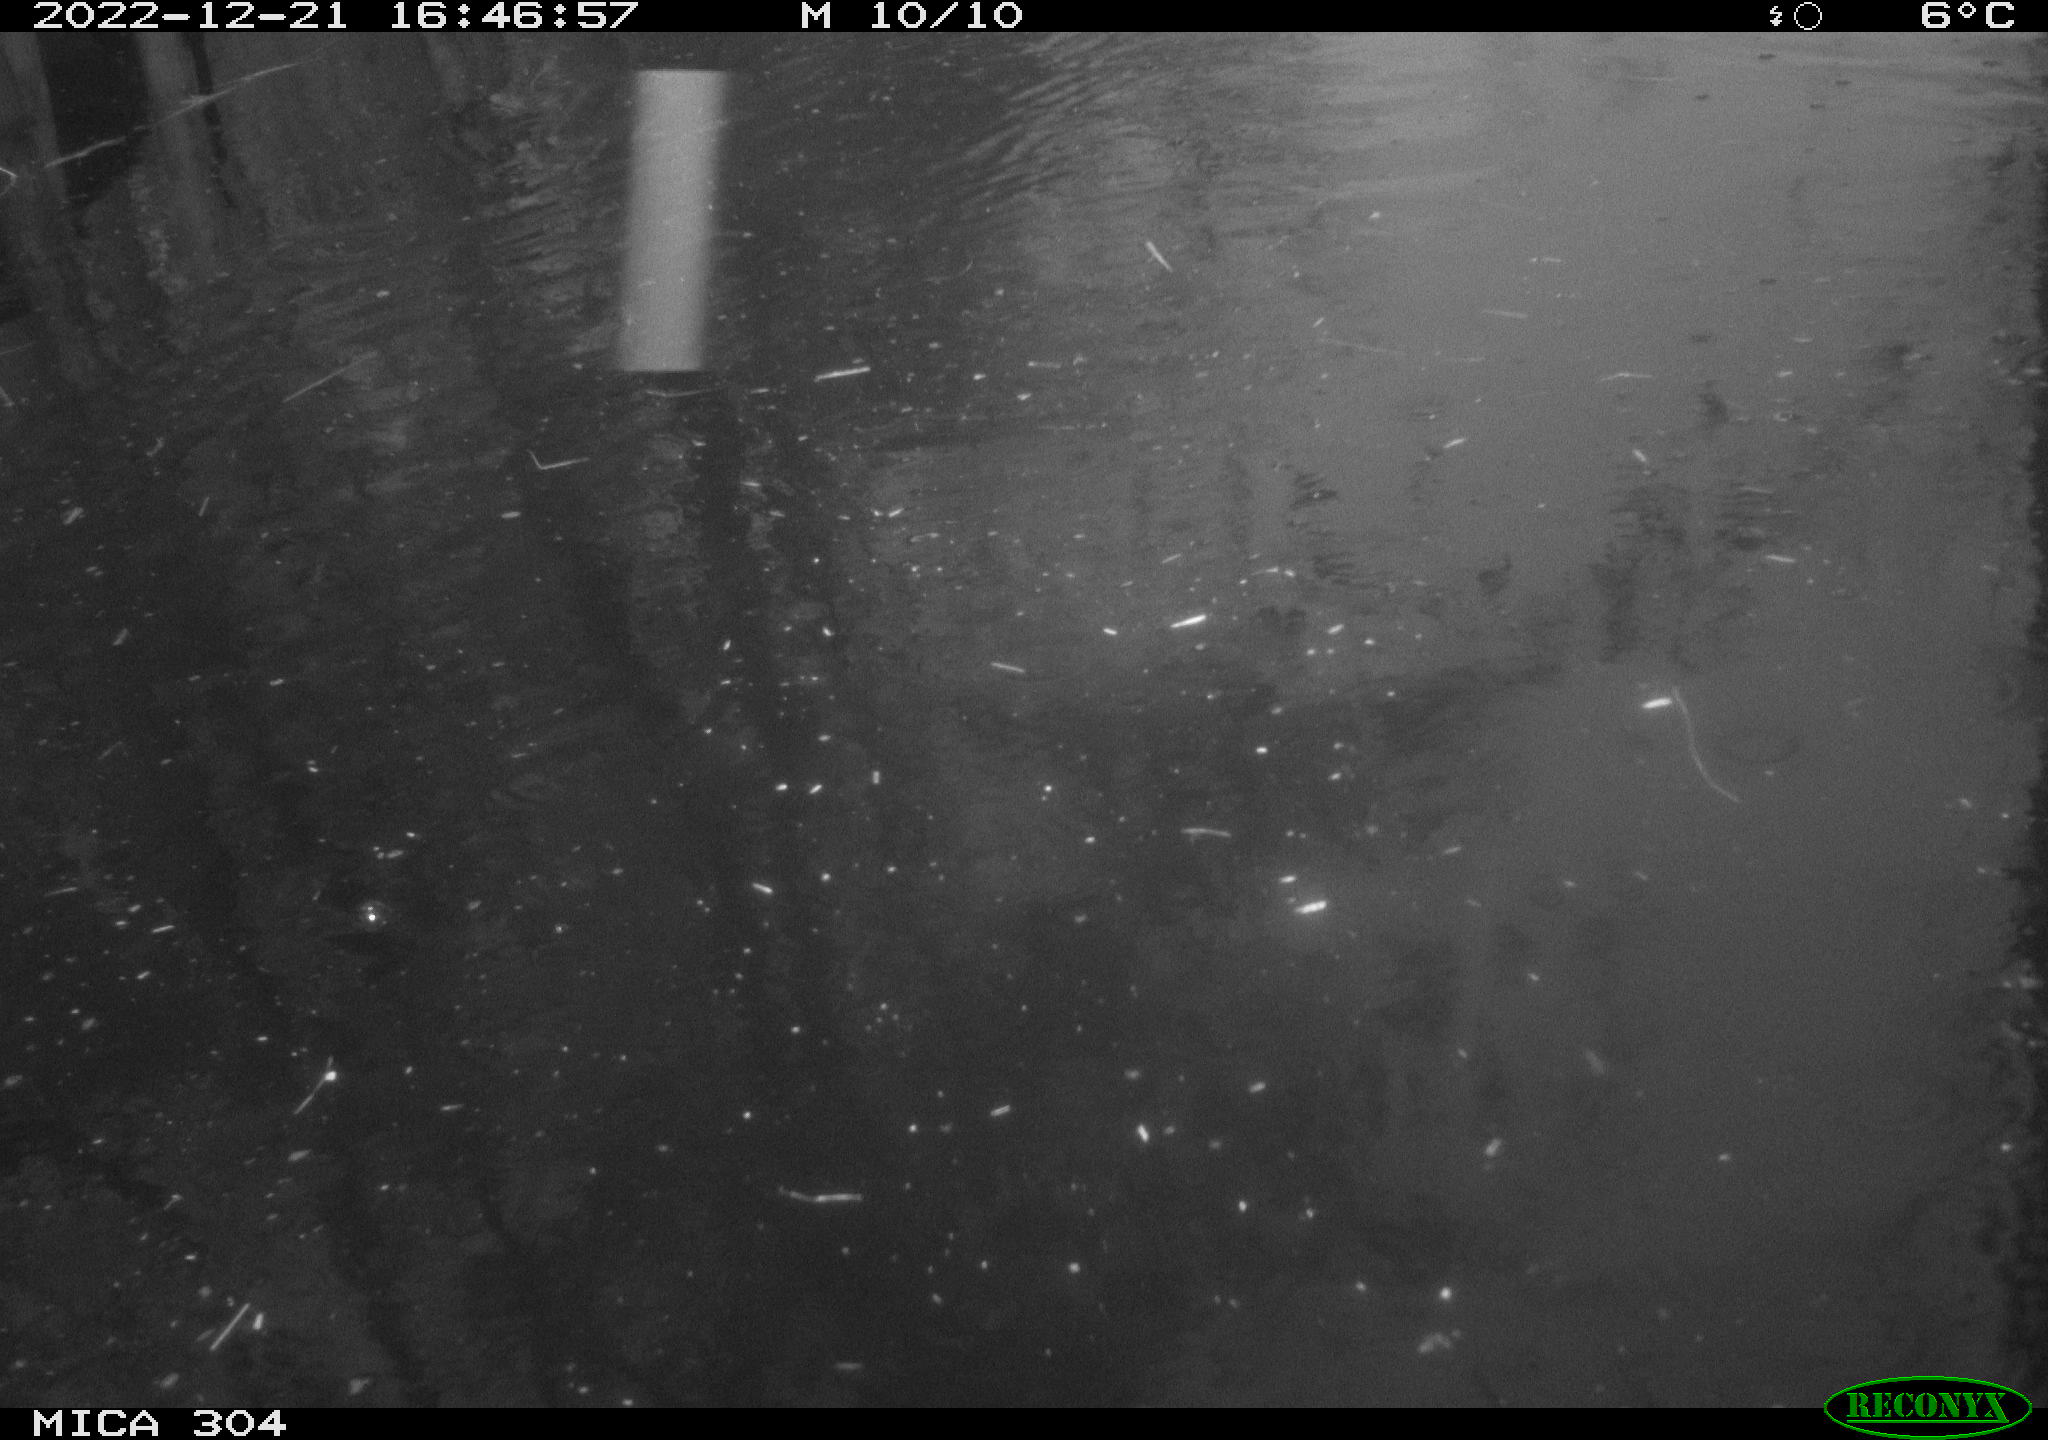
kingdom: Animalia
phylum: Chordata
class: Aves
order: Anseriformes
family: Anatidae
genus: Anas
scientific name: Anas
